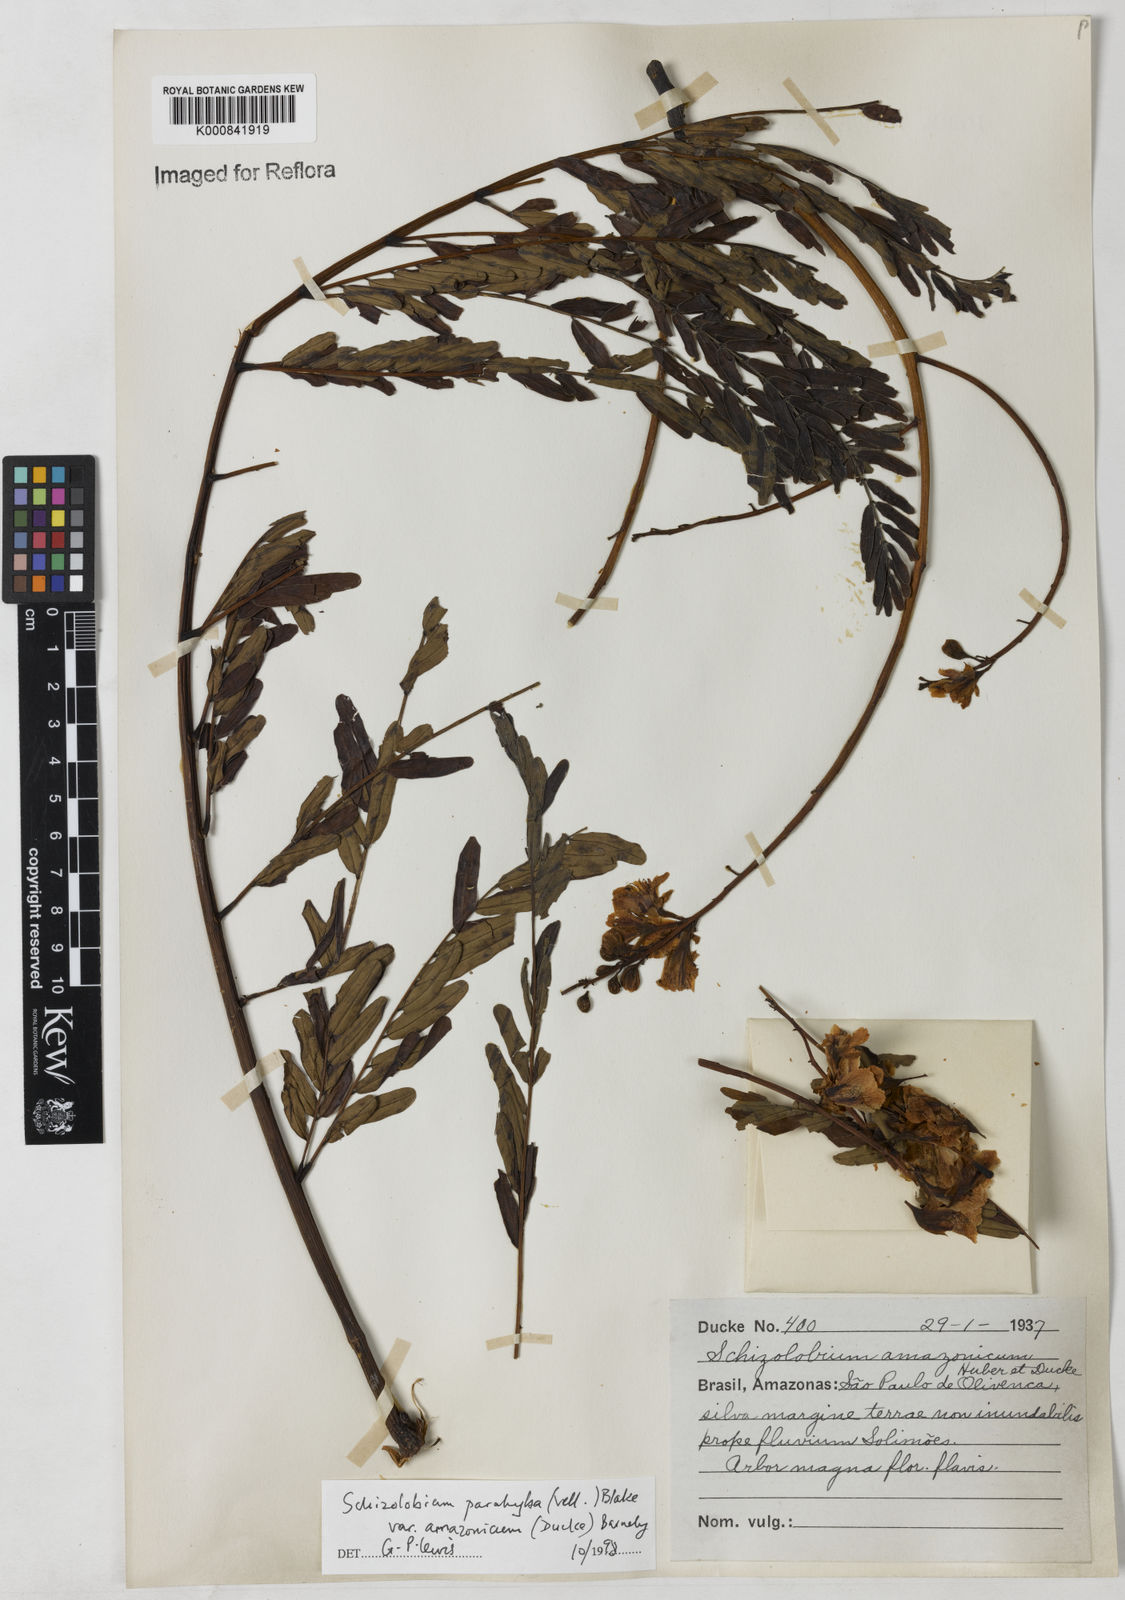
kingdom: Plantae
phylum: Tracheophyta
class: Magnoliopsida
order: Fabales
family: Fabaceae
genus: Schizolobium
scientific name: Schizolobium parahyba
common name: Brazilian firetree
